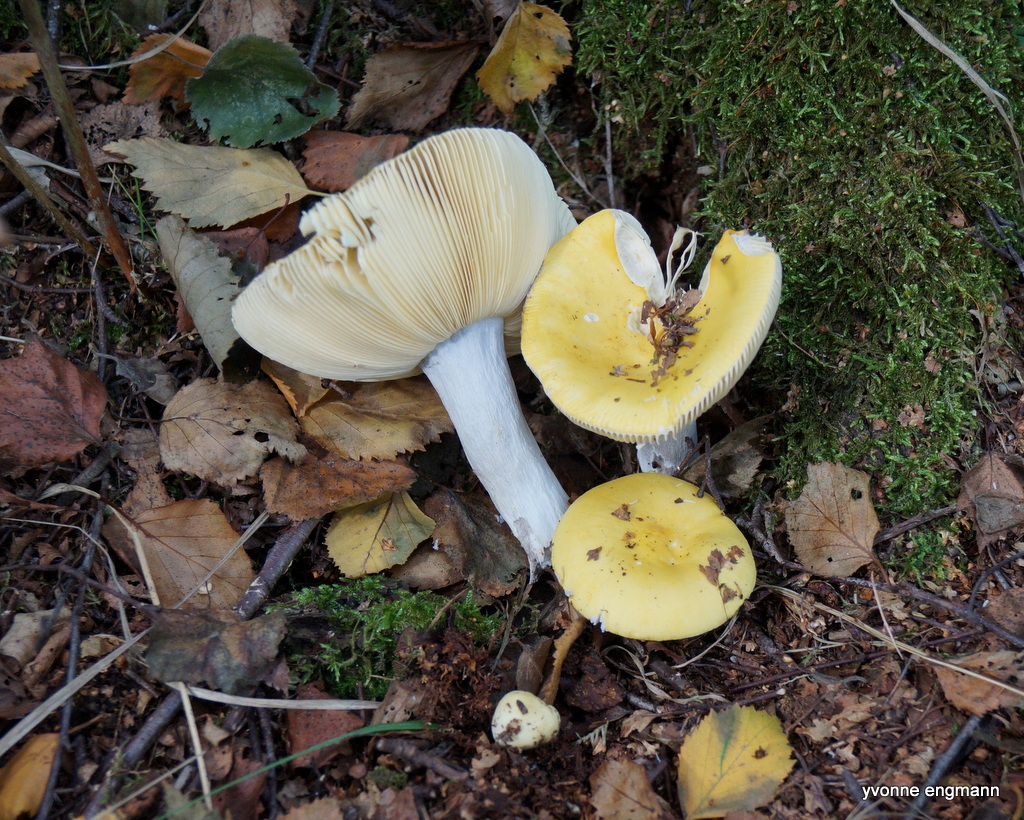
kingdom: Fungi
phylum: Basidiomycota
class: Agaricomycetes
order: Russulales
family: Russulaceae
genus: Russula
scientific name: Russula claroflava
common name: birke-skørhat
